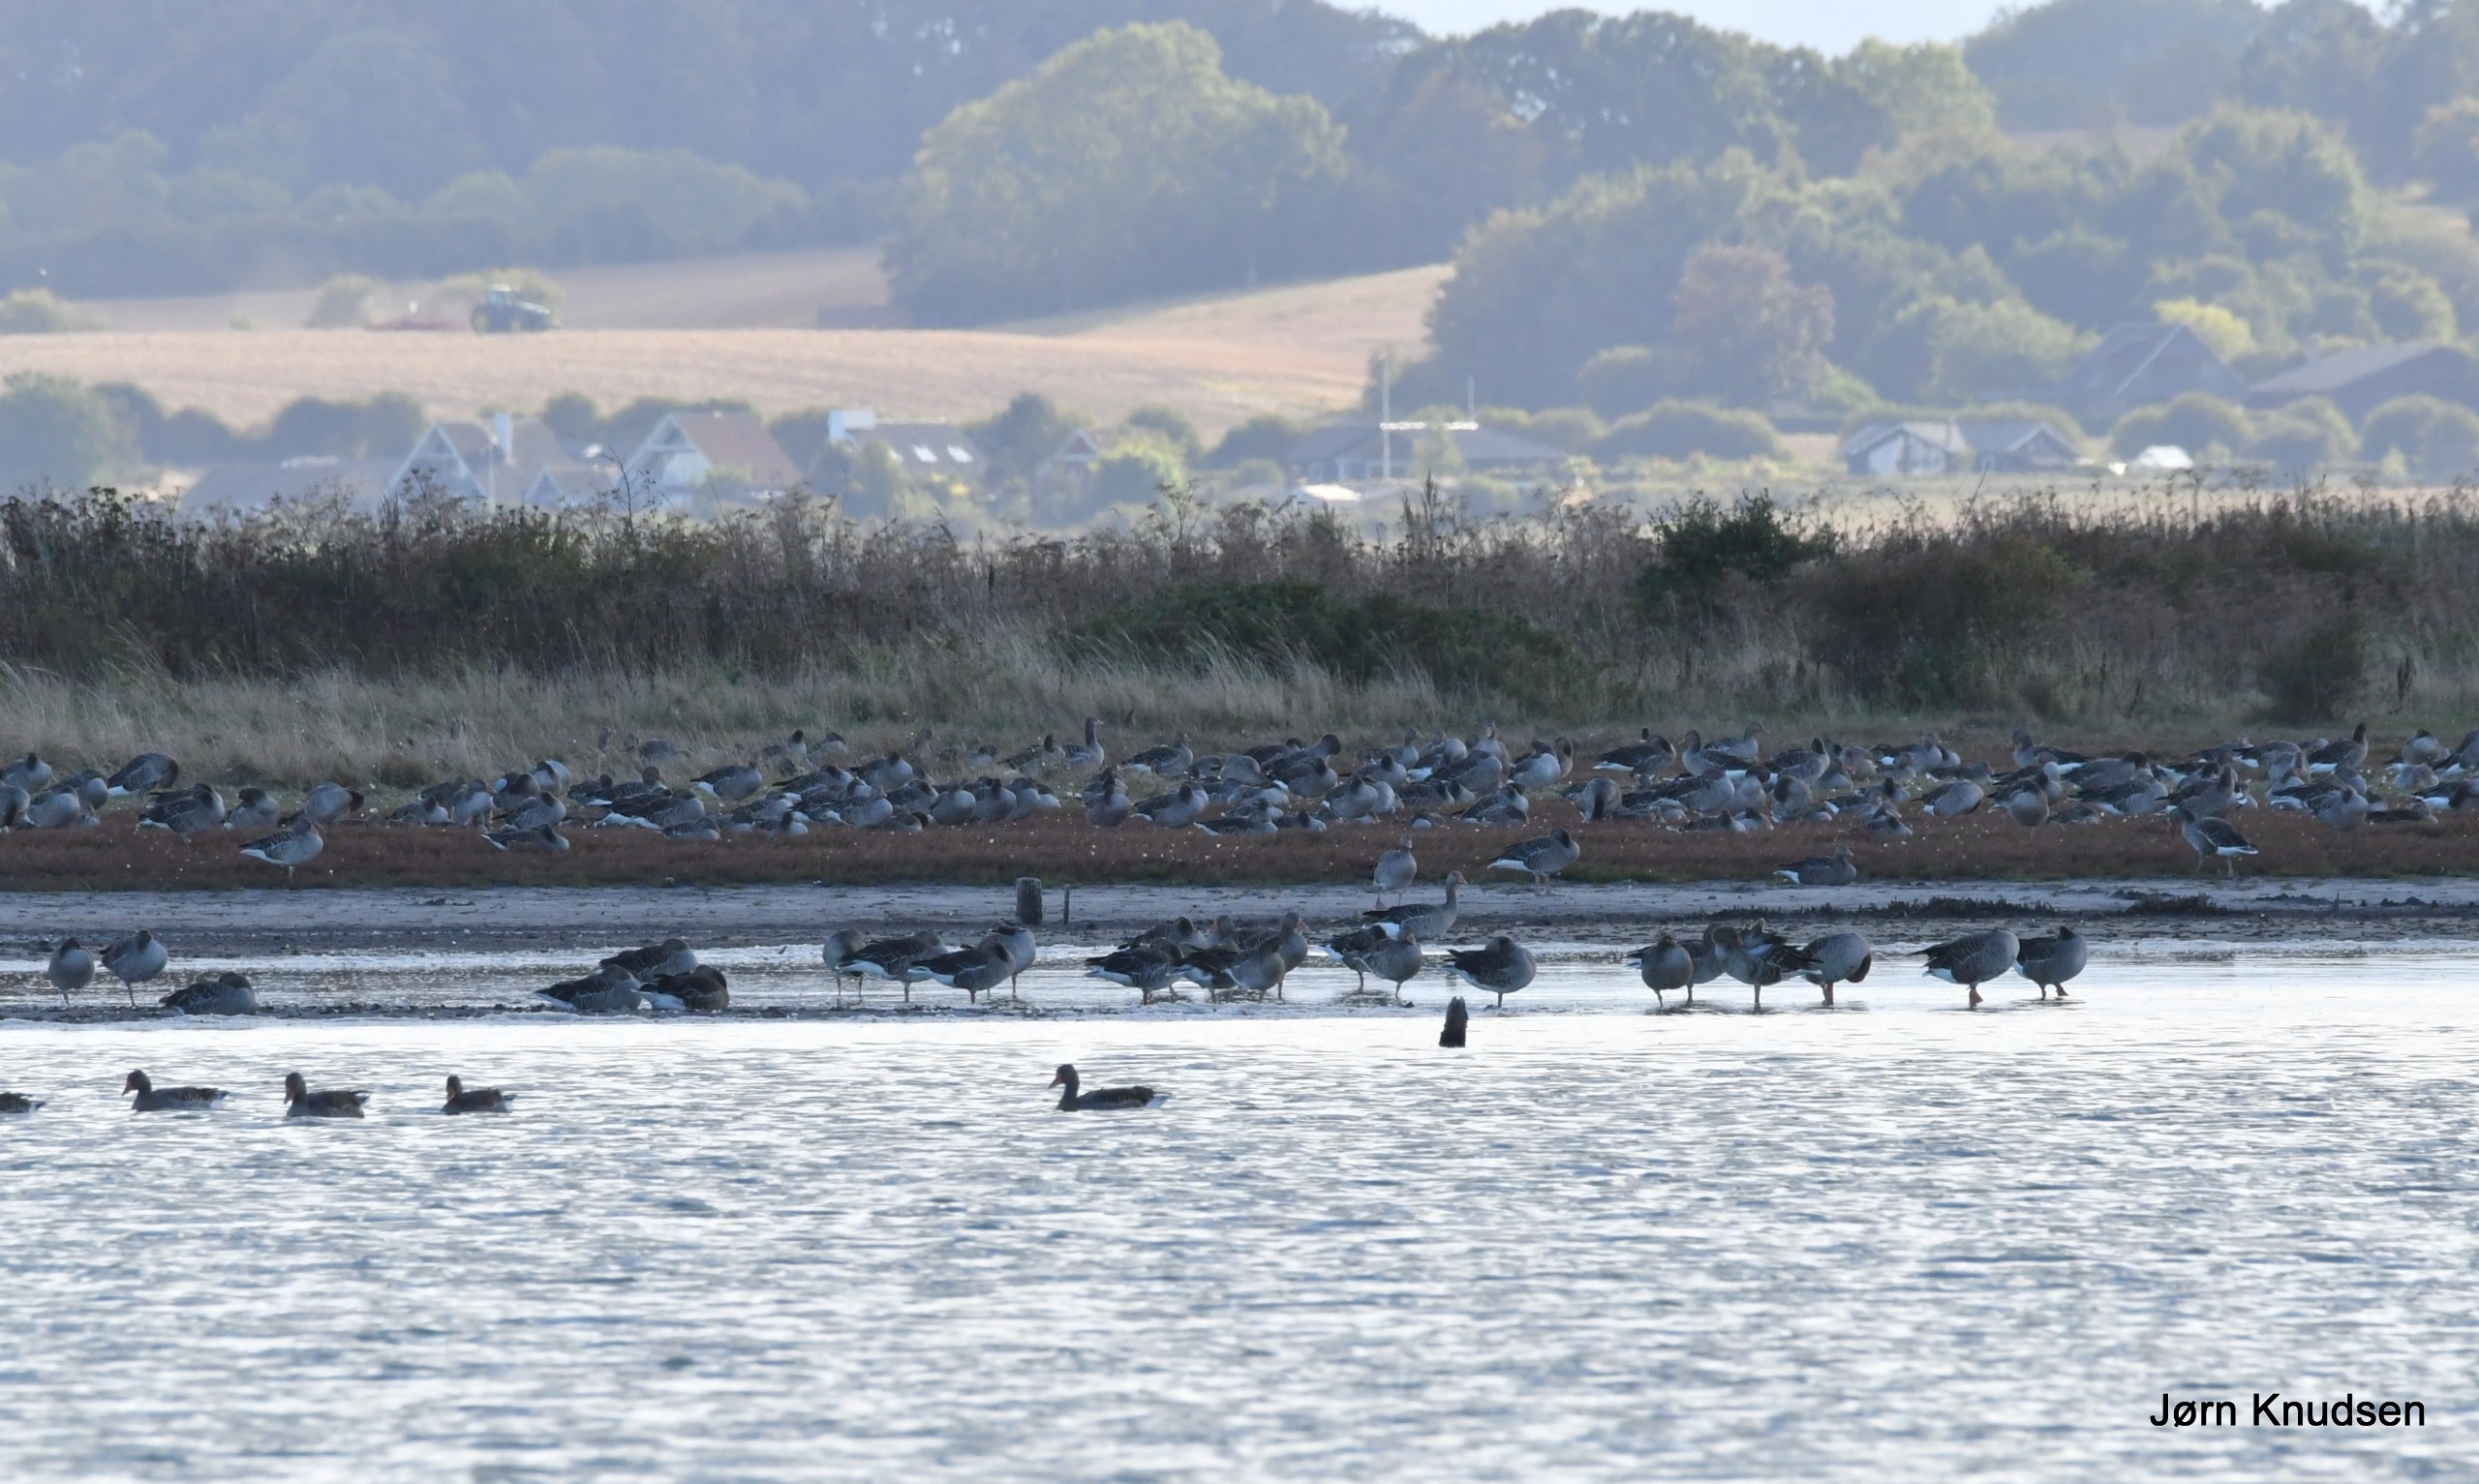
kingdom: Animalia
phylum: Chordata
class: Aves
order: Anseriformes
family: Anatidae
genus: Anser
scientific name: Anser anser
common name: Grågås
